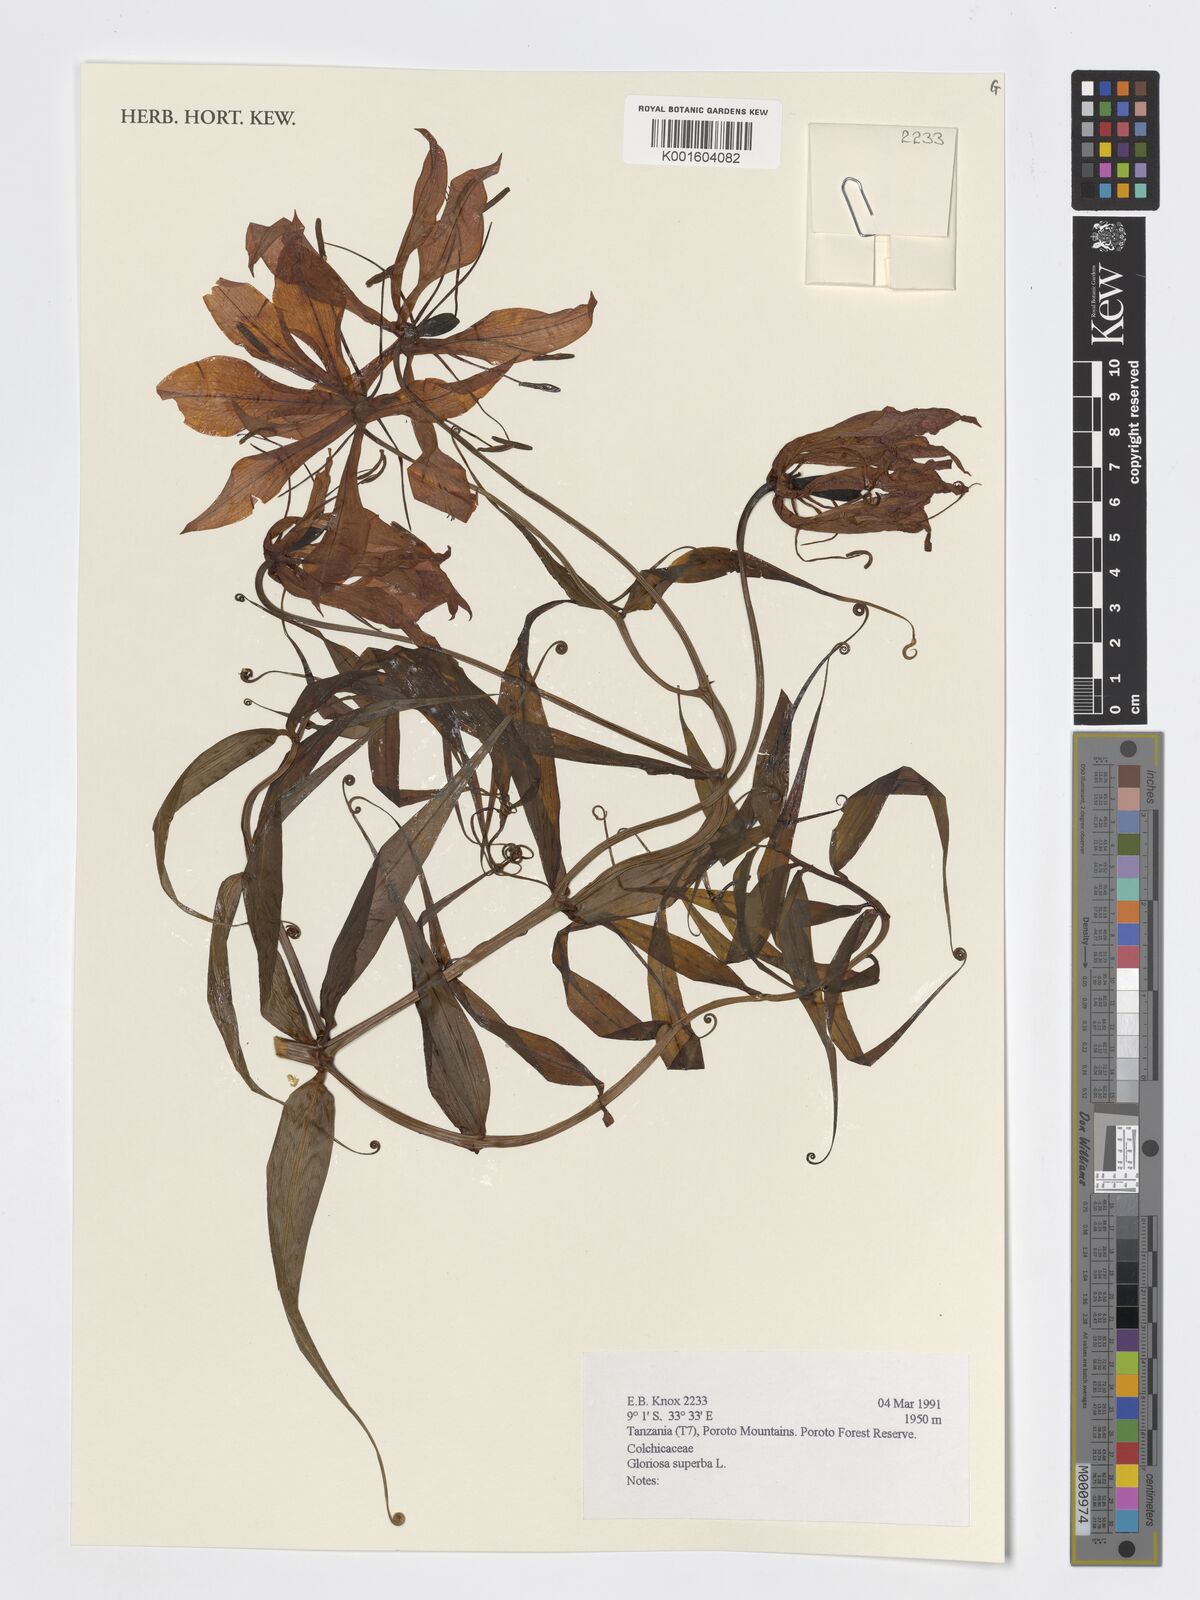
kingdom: Plantae
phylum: Tracheophyta
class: Liliopsida
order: Liliales
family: Colchicaceae
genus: Gloriosa
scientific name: Gloriosa superba
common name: Flame lily
